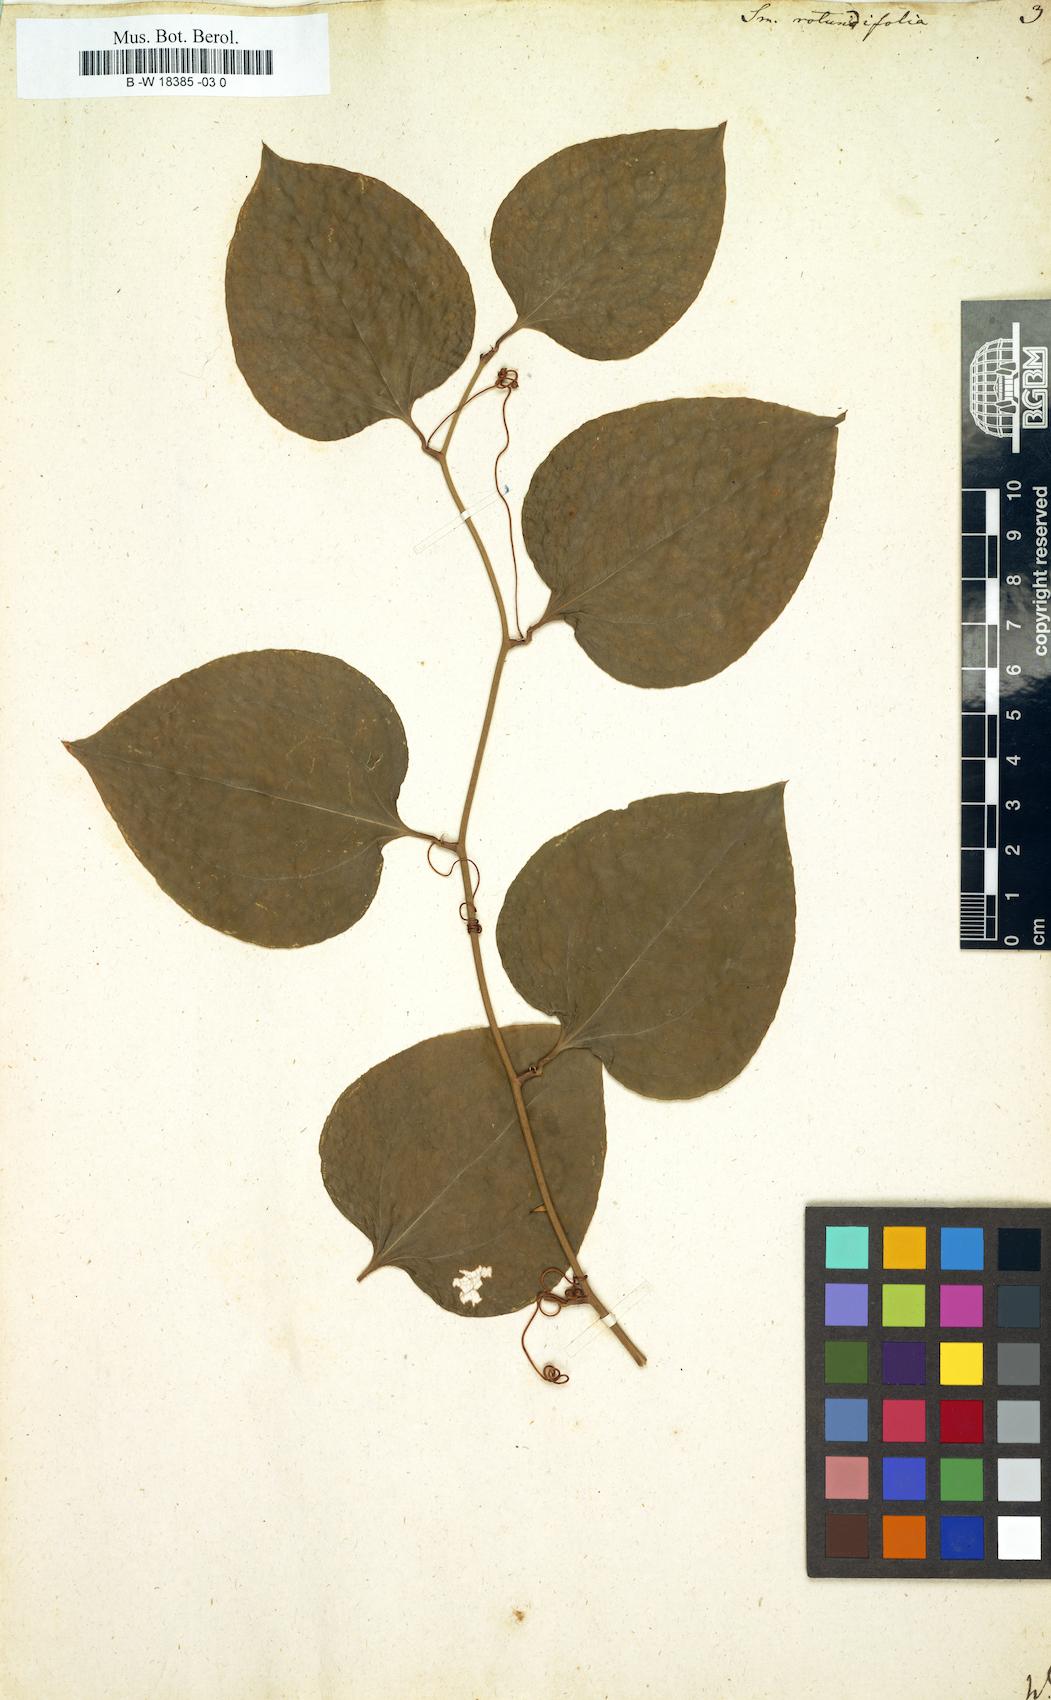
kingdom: Plantae
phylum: Tracheophyta
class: Liliopsida
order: Liliales
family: Smilacaceae
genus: Smilax
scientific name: Smilax rotundifolia
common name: Bullbriar
